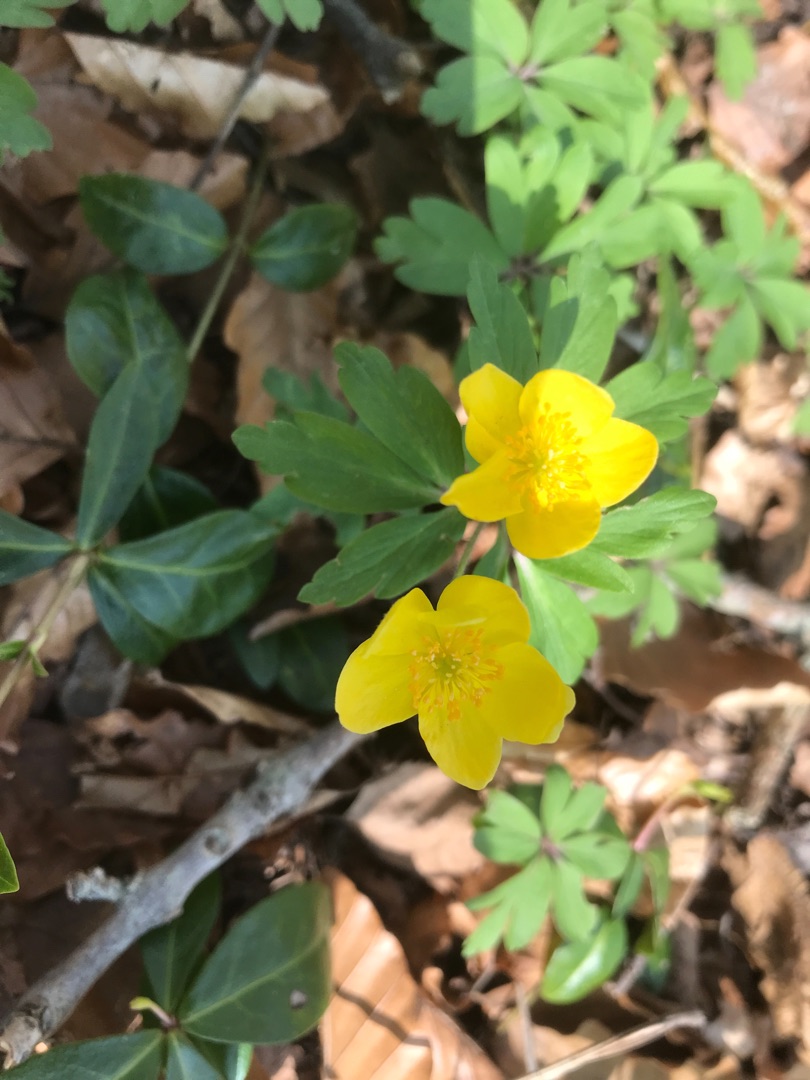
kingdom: Plantae
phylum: Tracheophyta
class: Magnoliopsida
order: Ranunculales
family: Ranunculaceae
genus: Anemone
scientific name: Anemone ranunculoides
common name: Gul anemone
